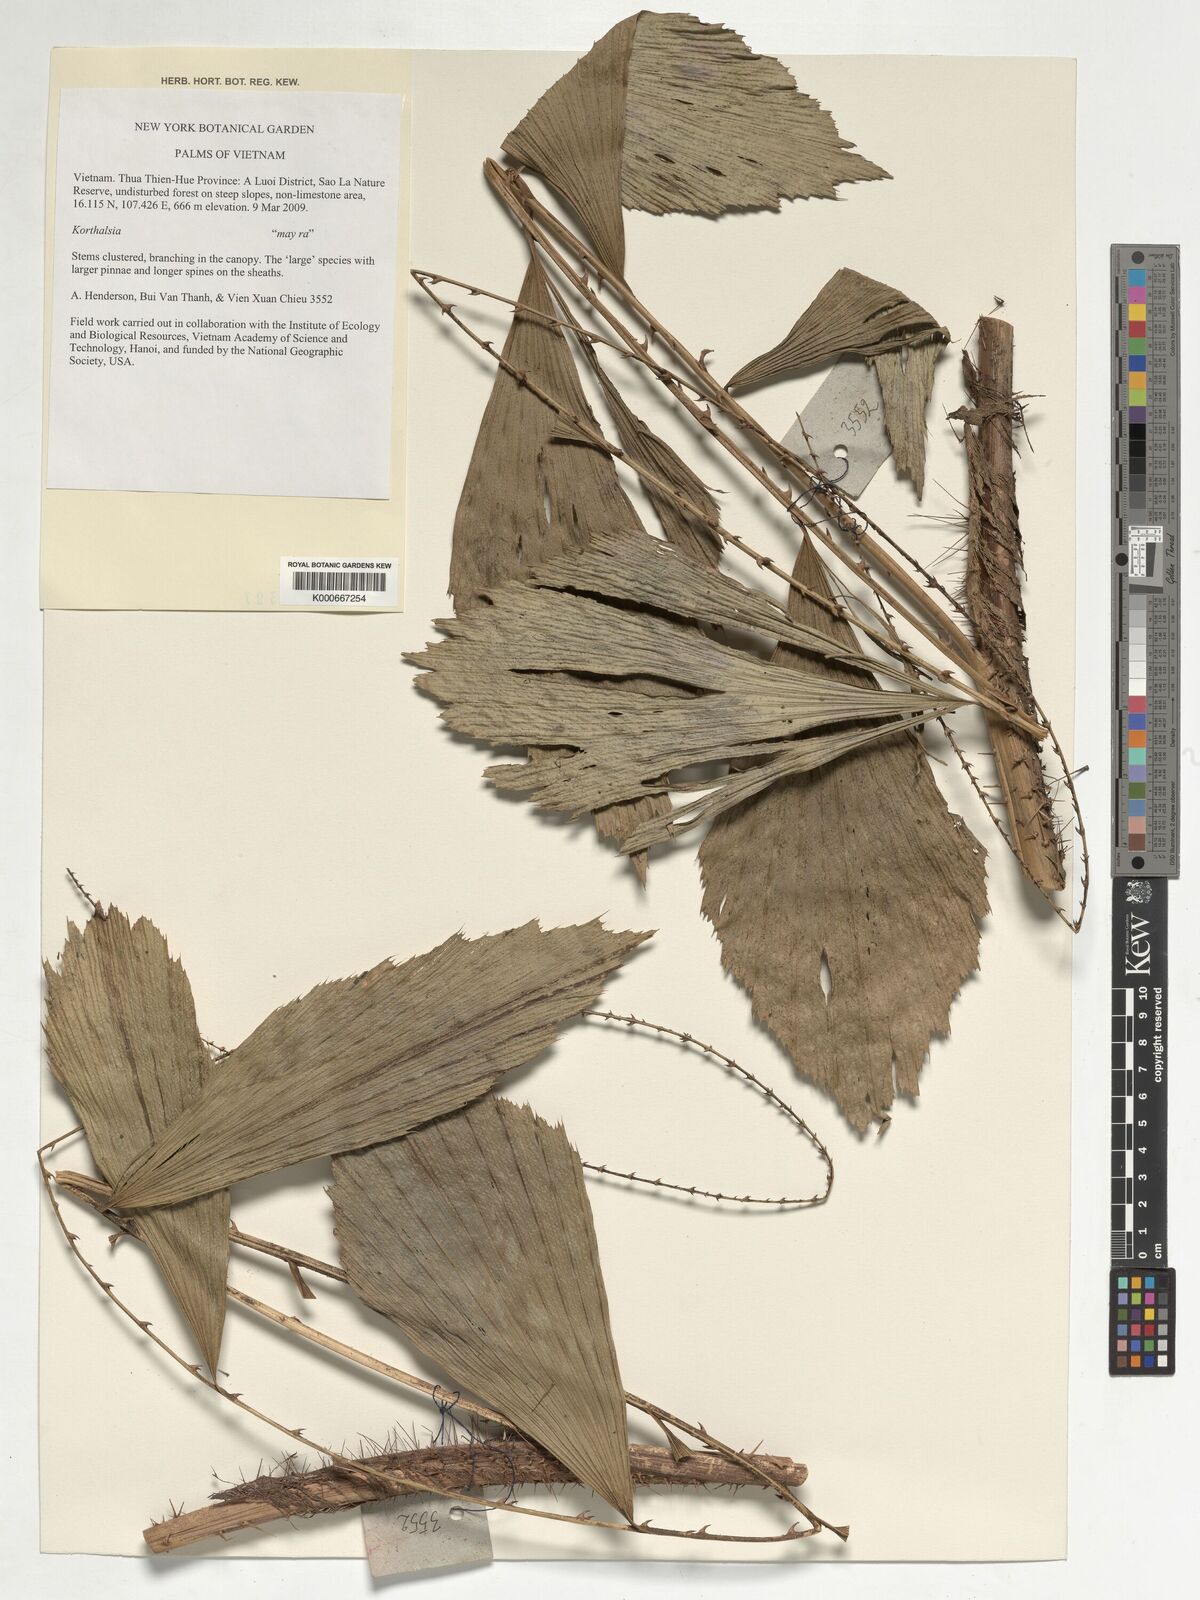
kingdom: Plantae
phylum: Tracheophyta
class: Liliopsida
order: Arecales
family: Arecaceae
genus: Korthalsia
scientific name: Korthalsia
